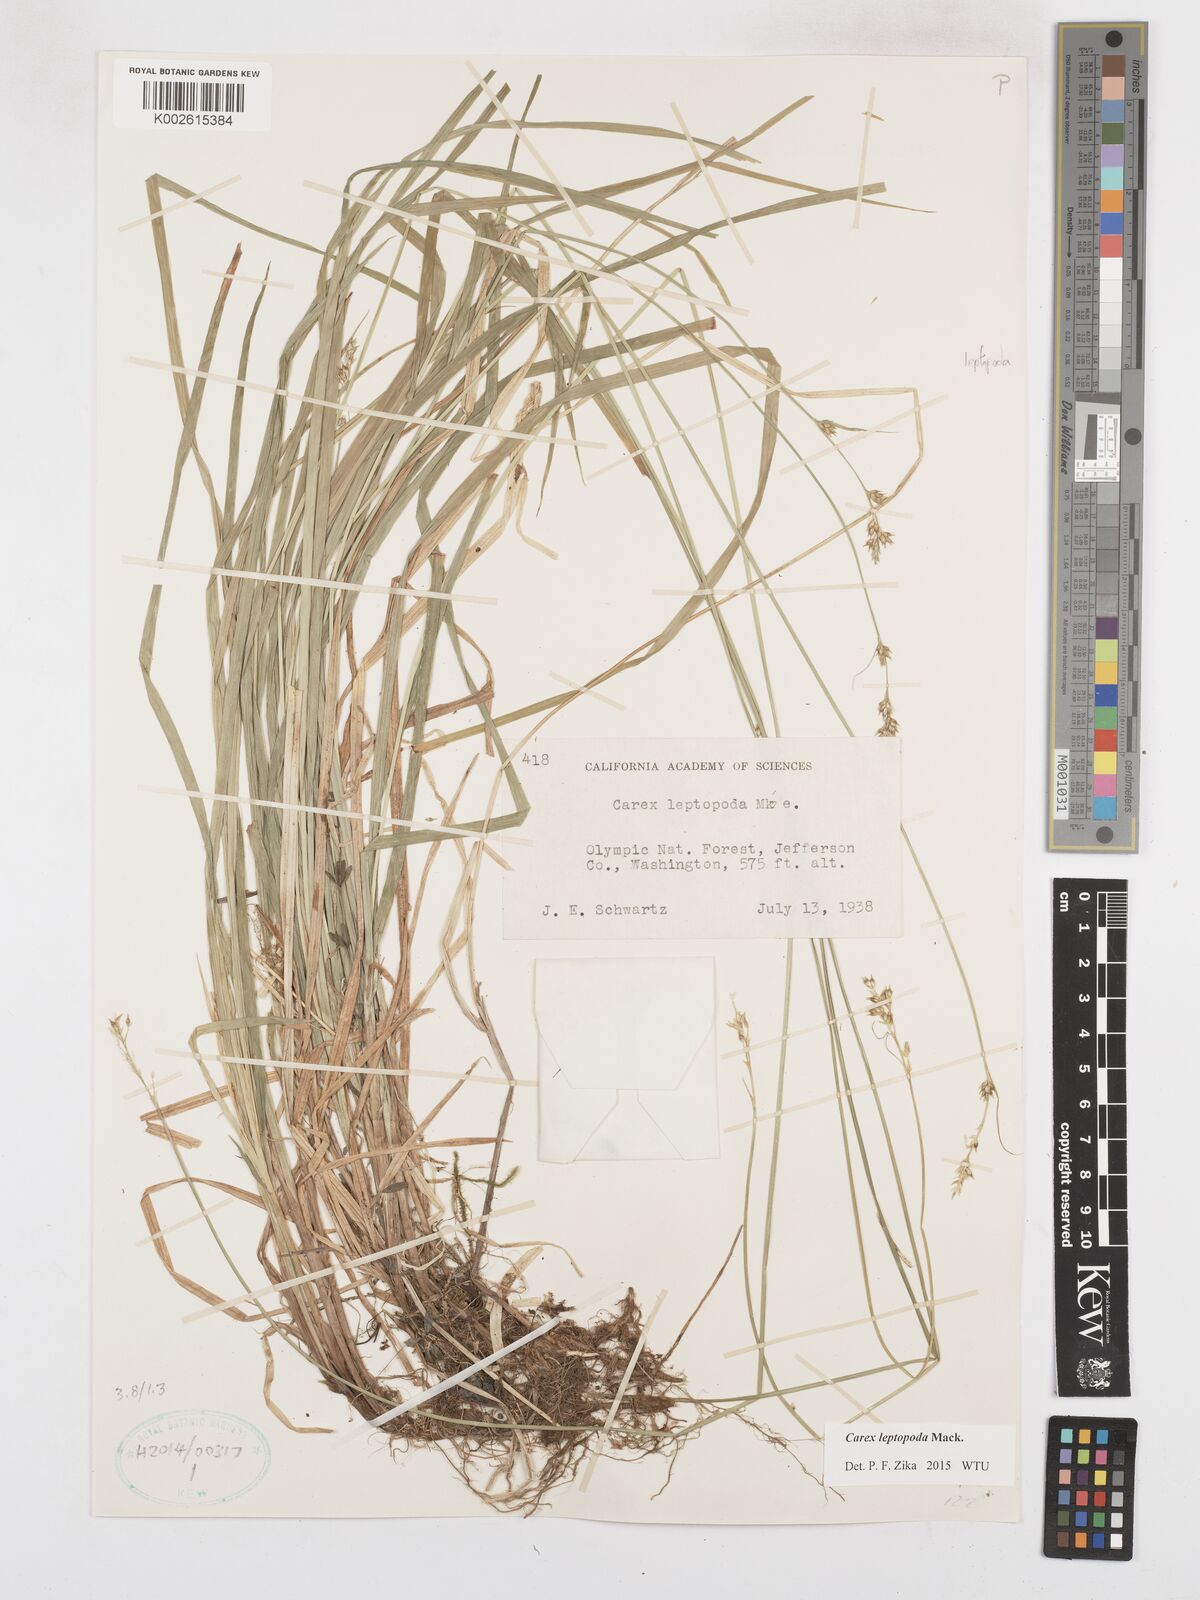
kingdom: Plantae
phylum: Tracheophyta
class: Liliopsida
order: Poales
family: Cyperaceae
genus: Carex
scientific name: Carex leptopoda
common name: Short-scale sedge
